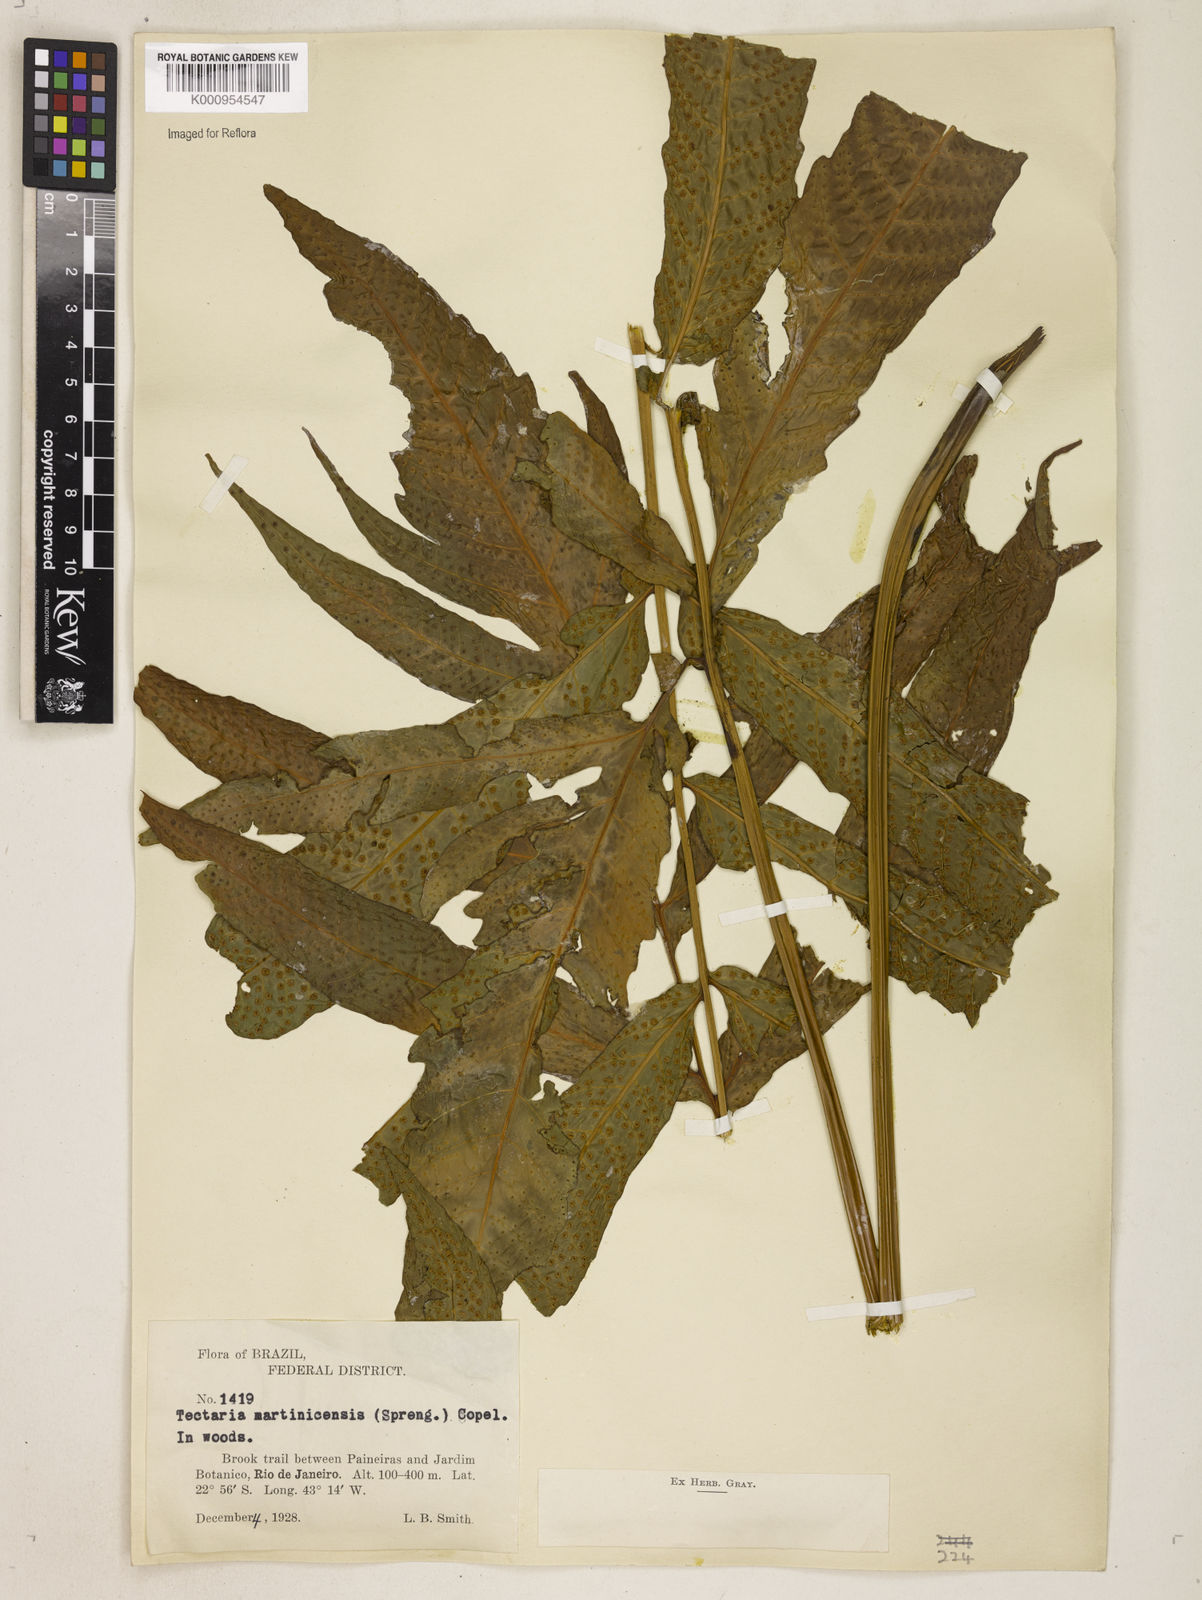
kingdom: Plantae
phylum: Tracheophyta
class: Polypodiopsida
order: Polypodiales
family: Tectariaceae
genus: Tectaria
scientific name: Tectaria incisa
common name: Incised halberd fern
